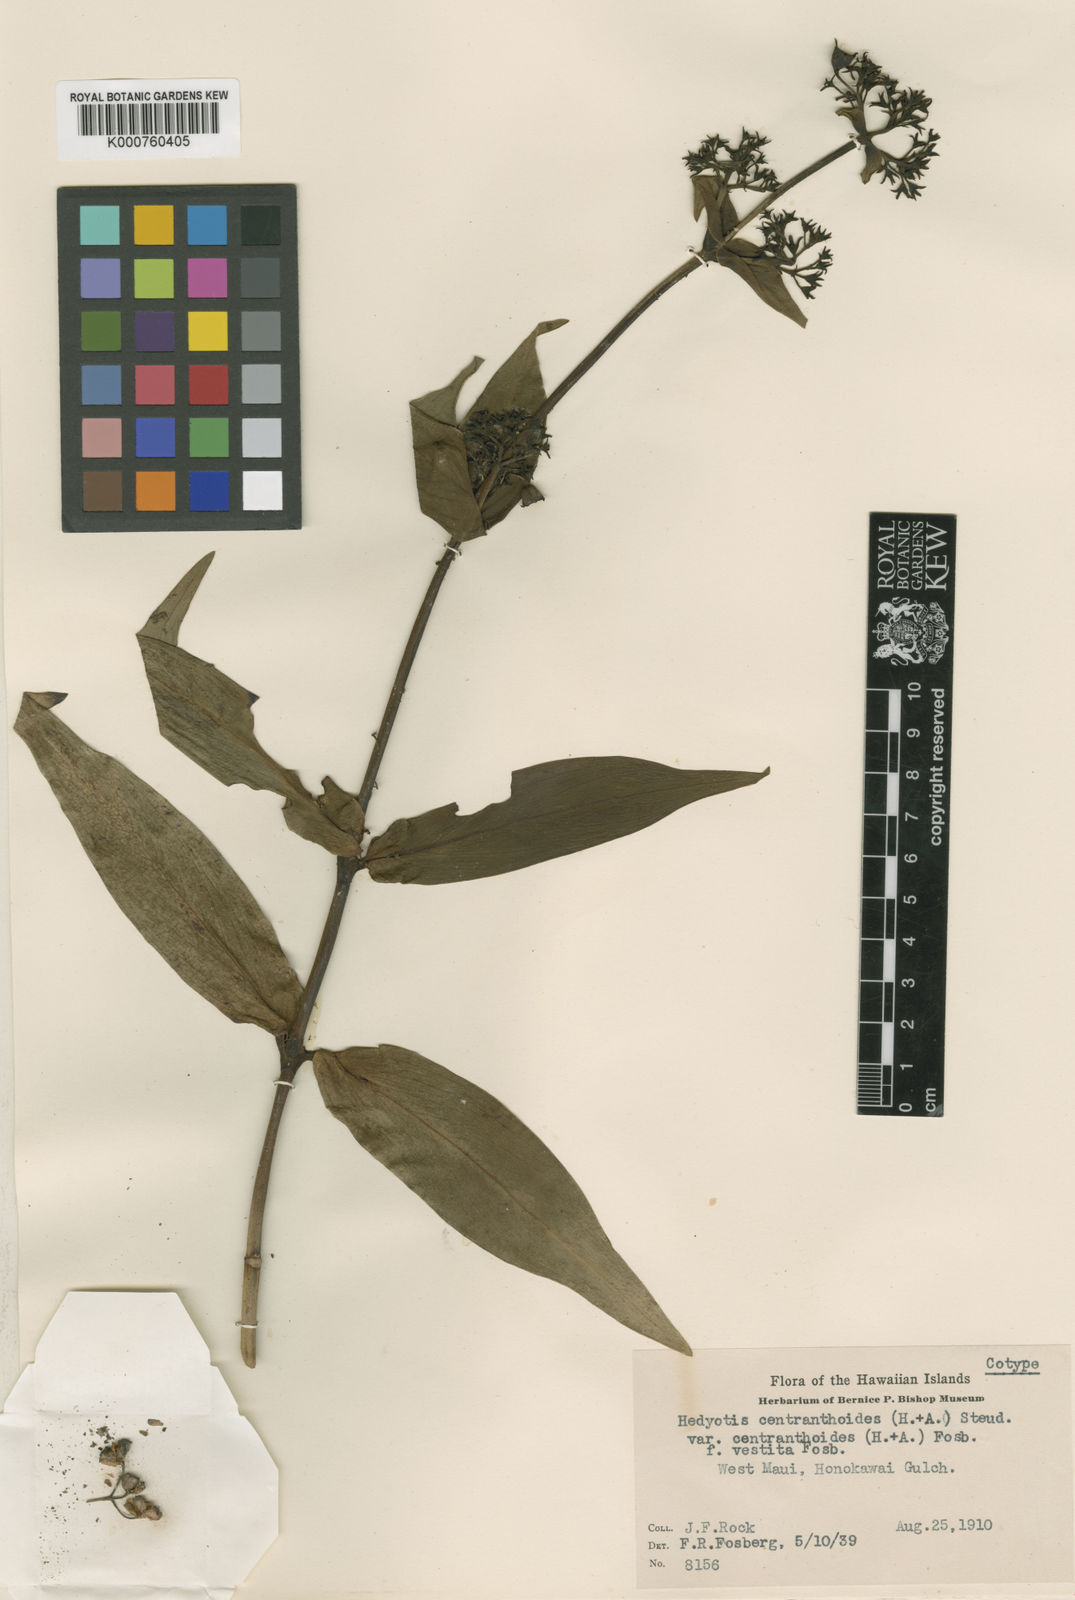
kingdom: Plantae
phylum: Tracheophyta
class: Magnoliopsida
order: Gentianales
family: Rubiaceae
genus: Kadua
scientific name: Kadua centranthoides
